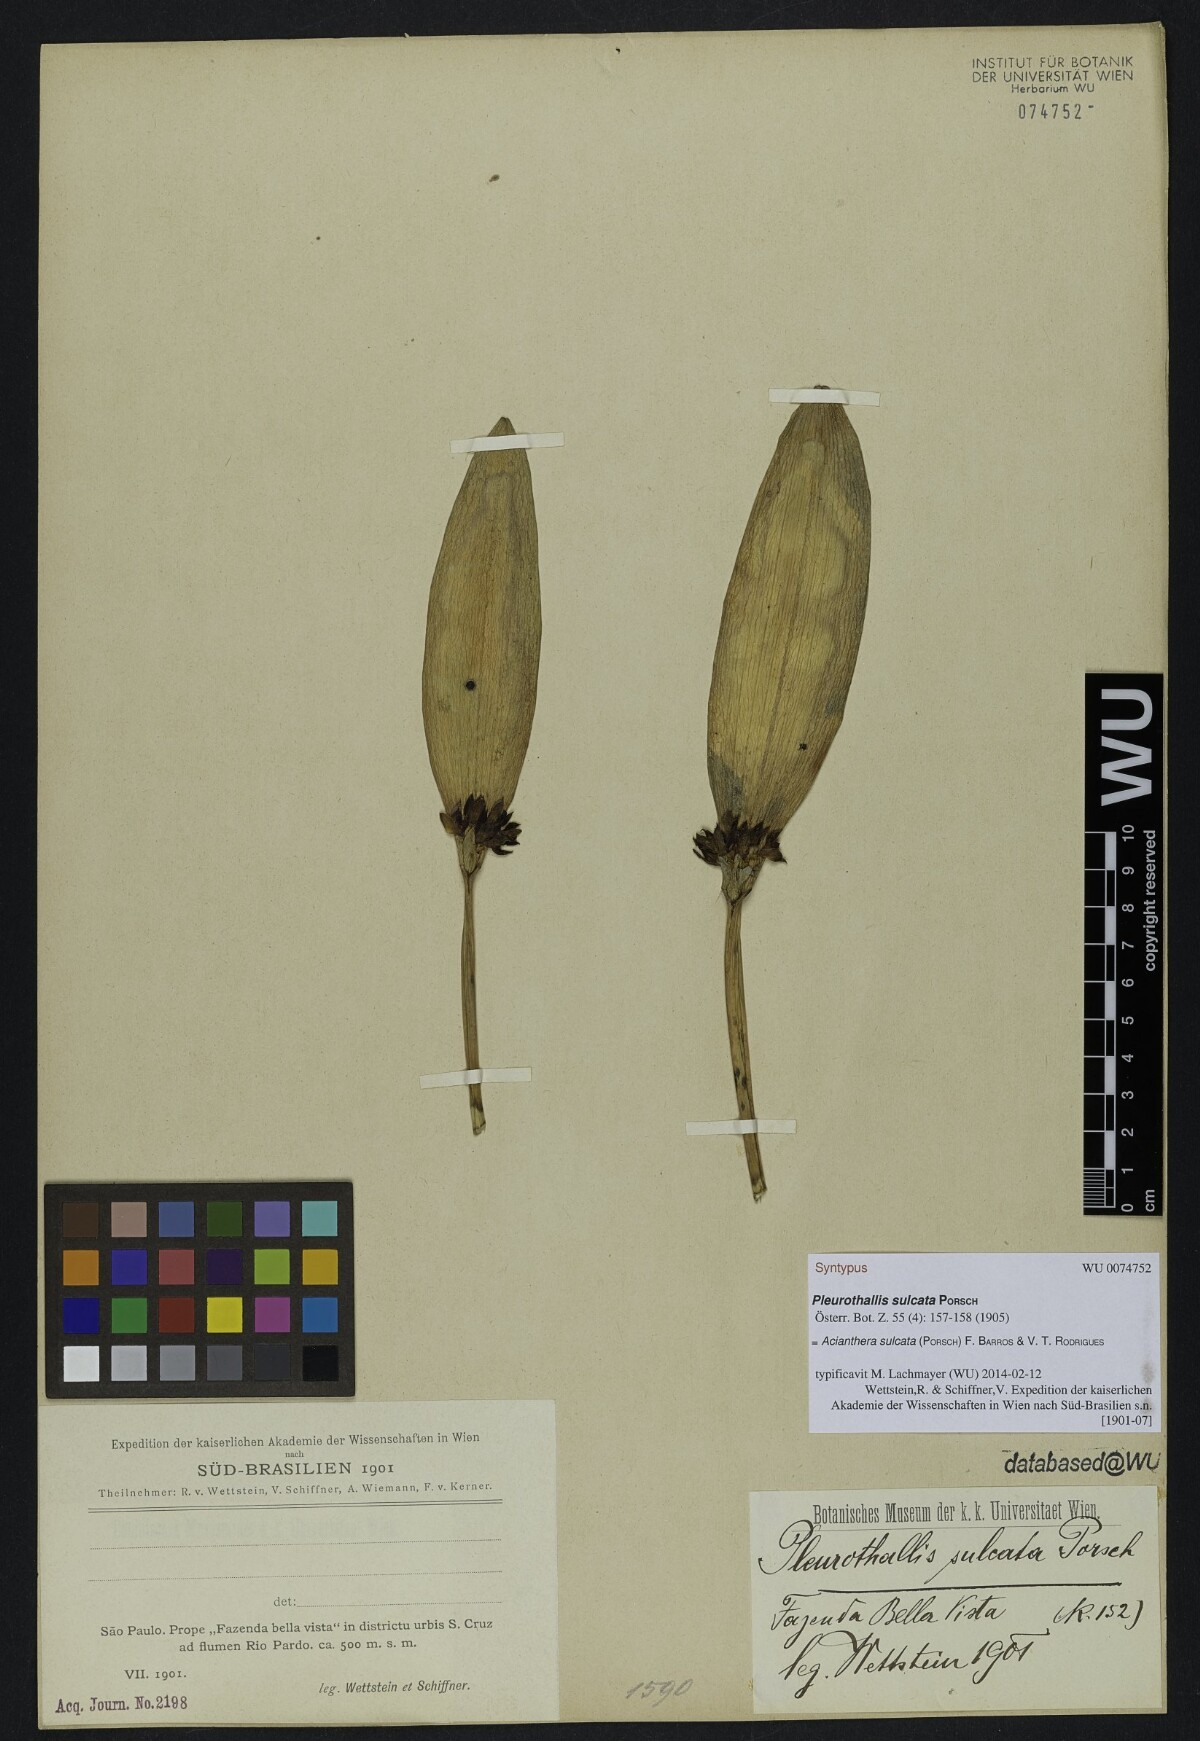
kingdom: Plantae
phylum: Tracheophyta
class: Liliopsida
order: Asparagales
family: Orchidaceae
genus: Acianthera
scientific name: Acianthera sulcata
